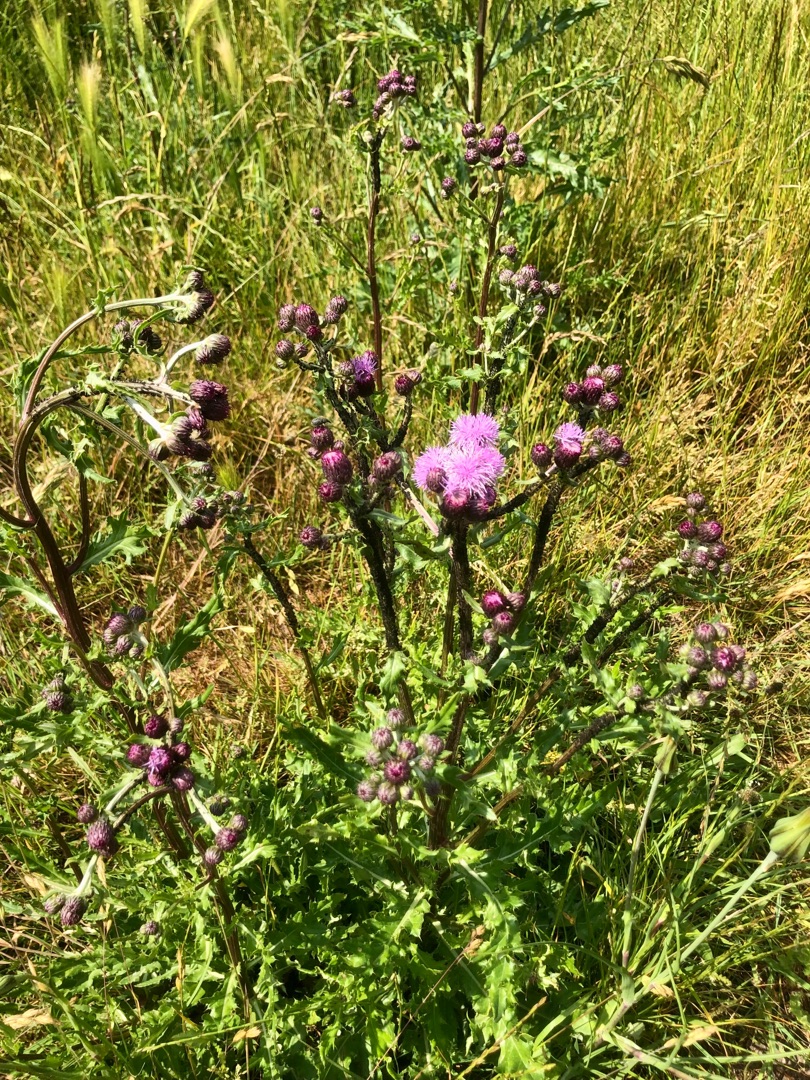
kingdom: Plantae
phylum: Tracheophyta
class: Magnoliopsida
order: Asterales
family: Asteraceae
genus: Cirsium
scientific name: Cirsium arvense
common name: Ager-tidsel
